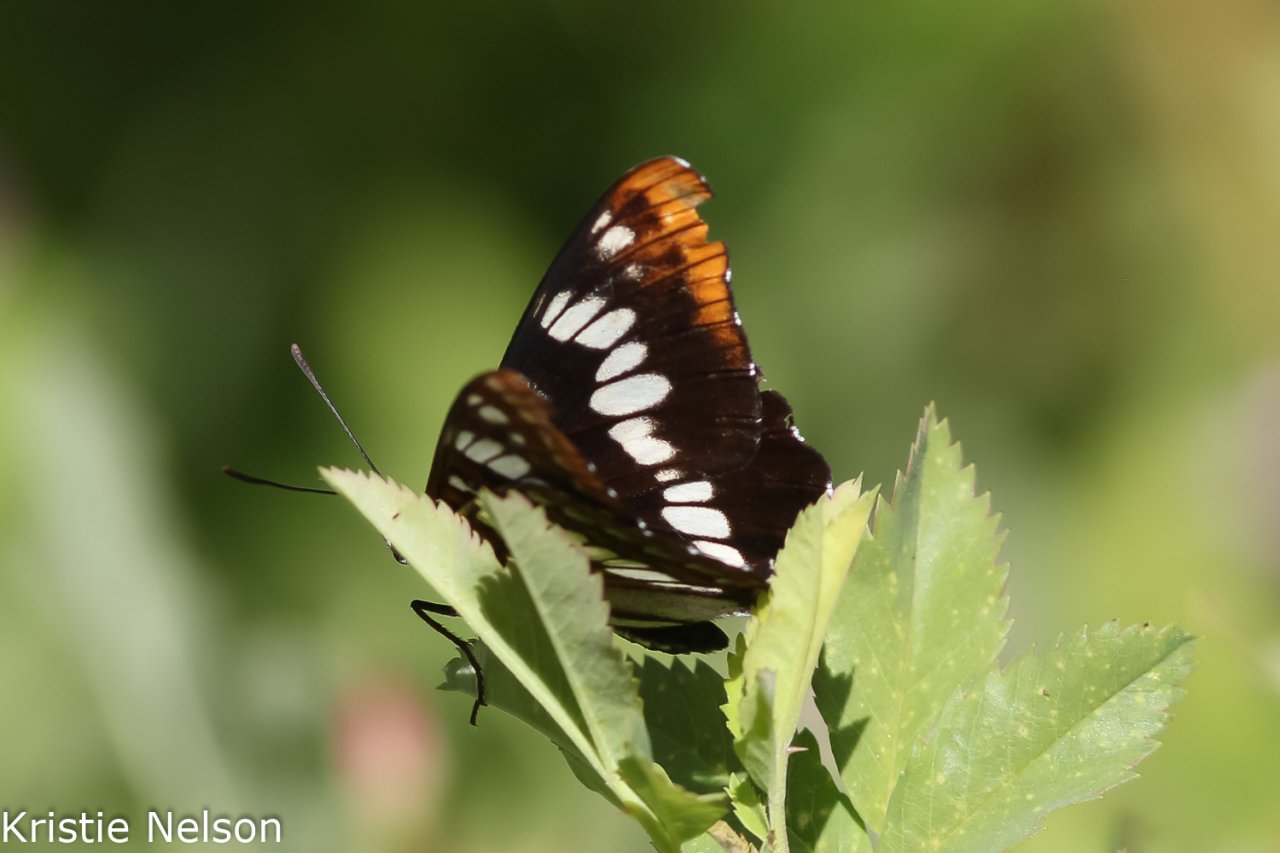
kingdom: Animalia
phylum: Arthropoda
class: Insecta
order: Lepidoptera
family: Nymphalidae
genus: Limenitis
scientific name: Limenitis lorquini
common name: Lorquin's Admiral
